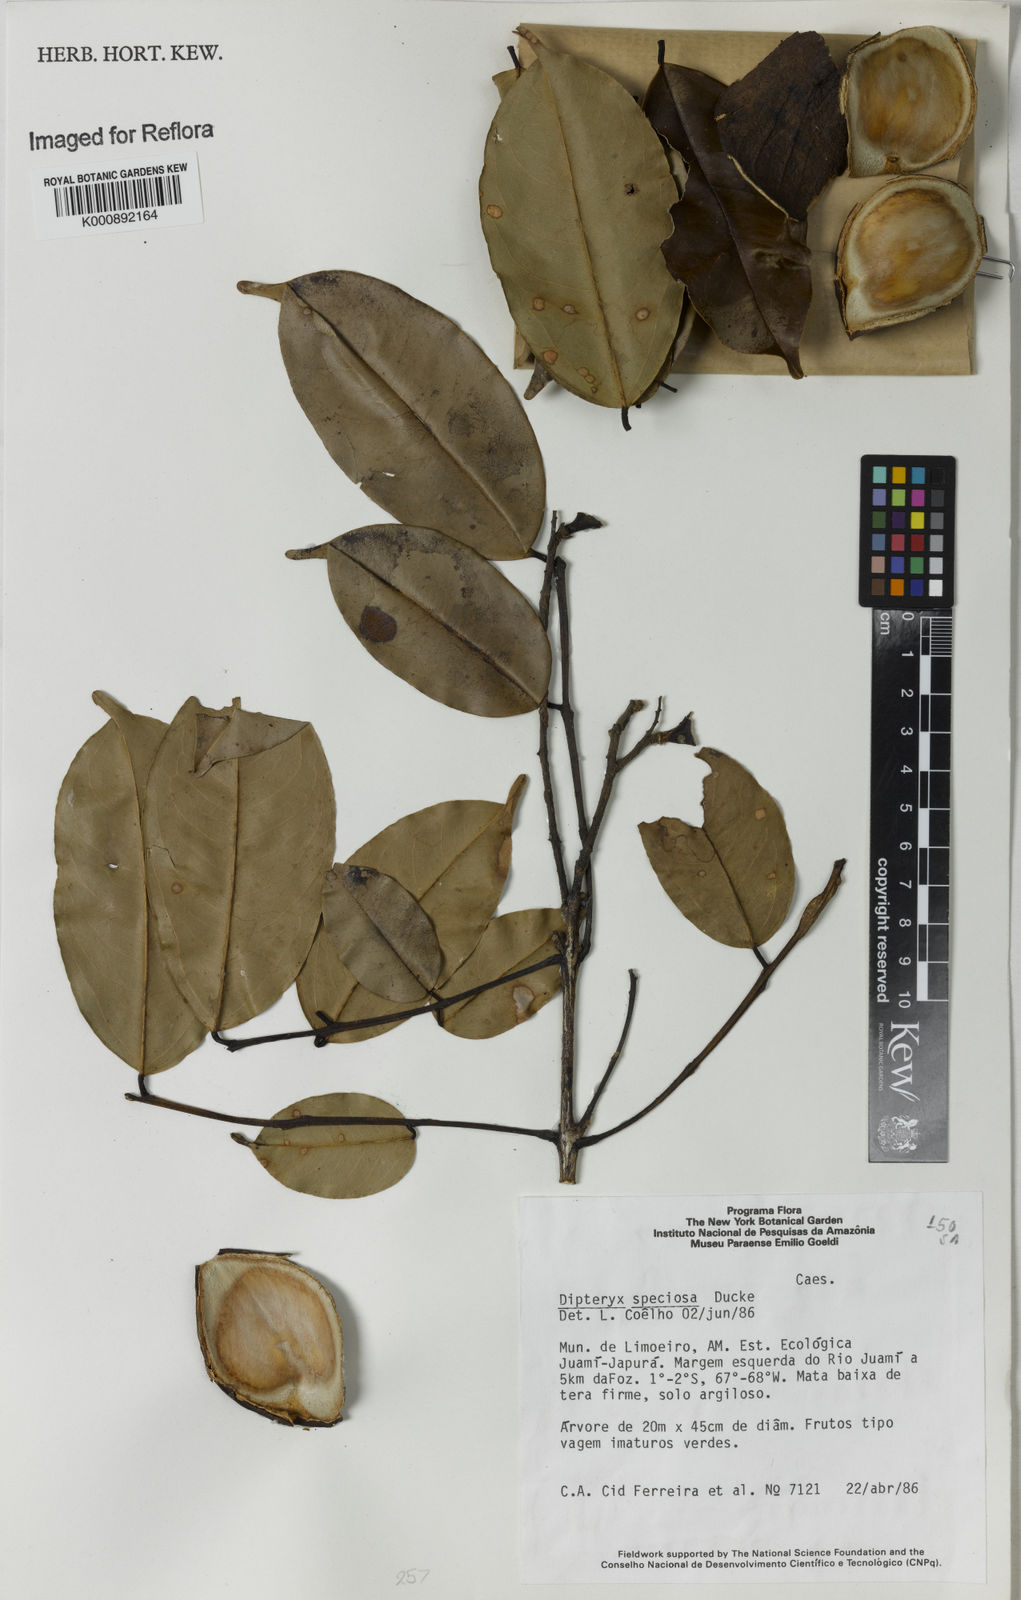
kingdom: Plantae
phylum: Tracheophyta
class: Magnoliopsida
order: Fabales
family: Fabaceae
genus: Taralea
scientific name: Taralea reticulata
